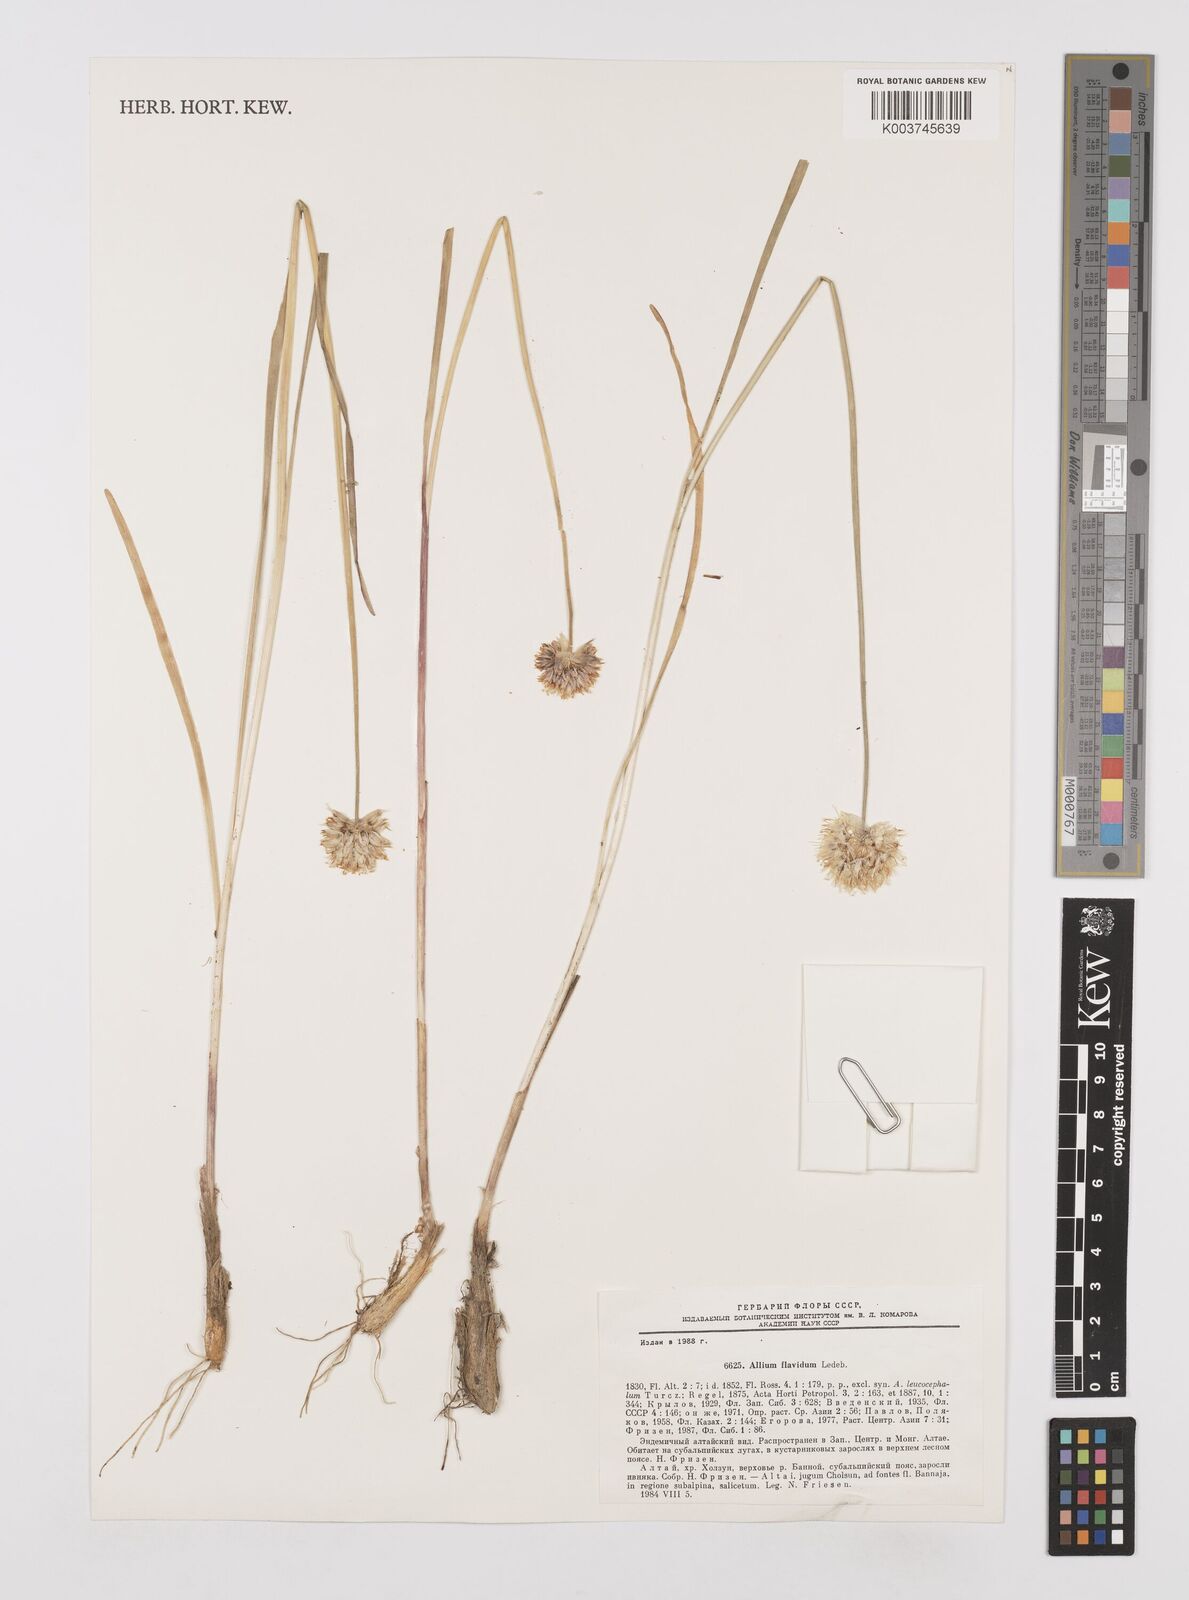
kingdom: Plantae
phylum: Tracheophyta
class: Liliopsida
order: Asparagales
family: Amaryllidaceae
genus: Allium
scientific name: Allium textile
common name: Prairie onion
